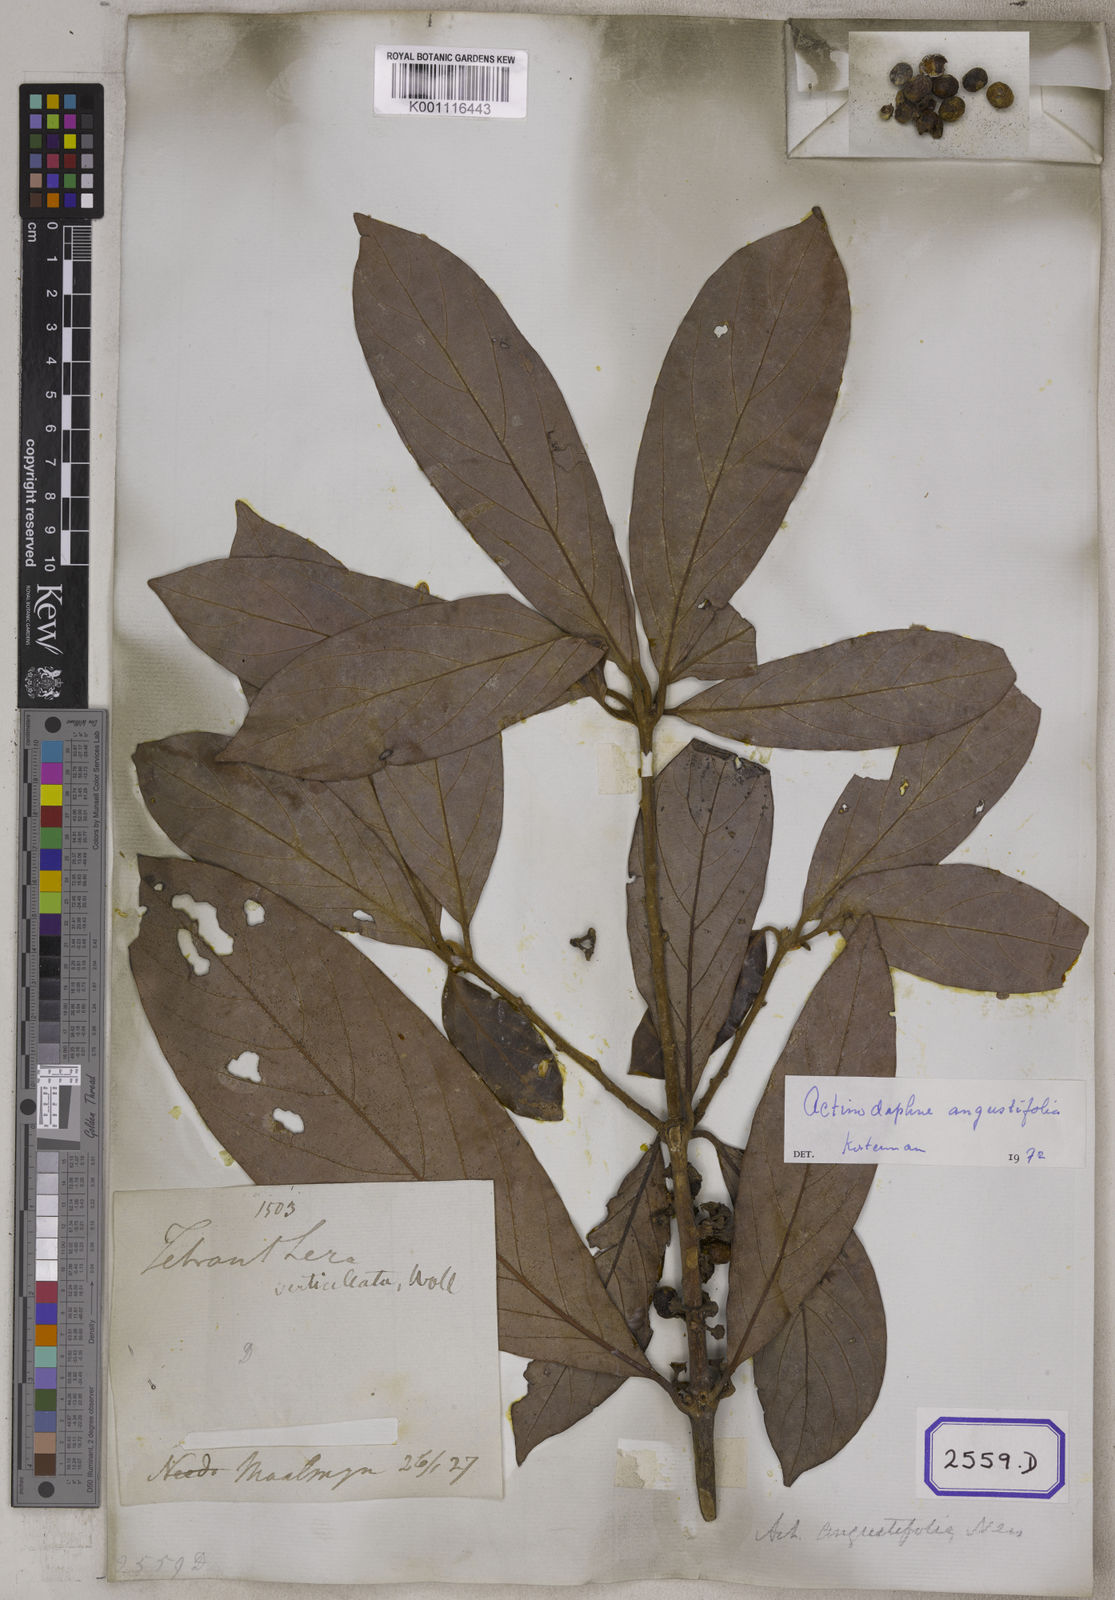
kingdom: Plantae
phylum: Tracheophyta
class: Magnoliopsida
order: Laurales
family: Lauraceae
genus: Actinodaphne
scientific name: Actinodaphne angustifolia
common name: Pisatree
